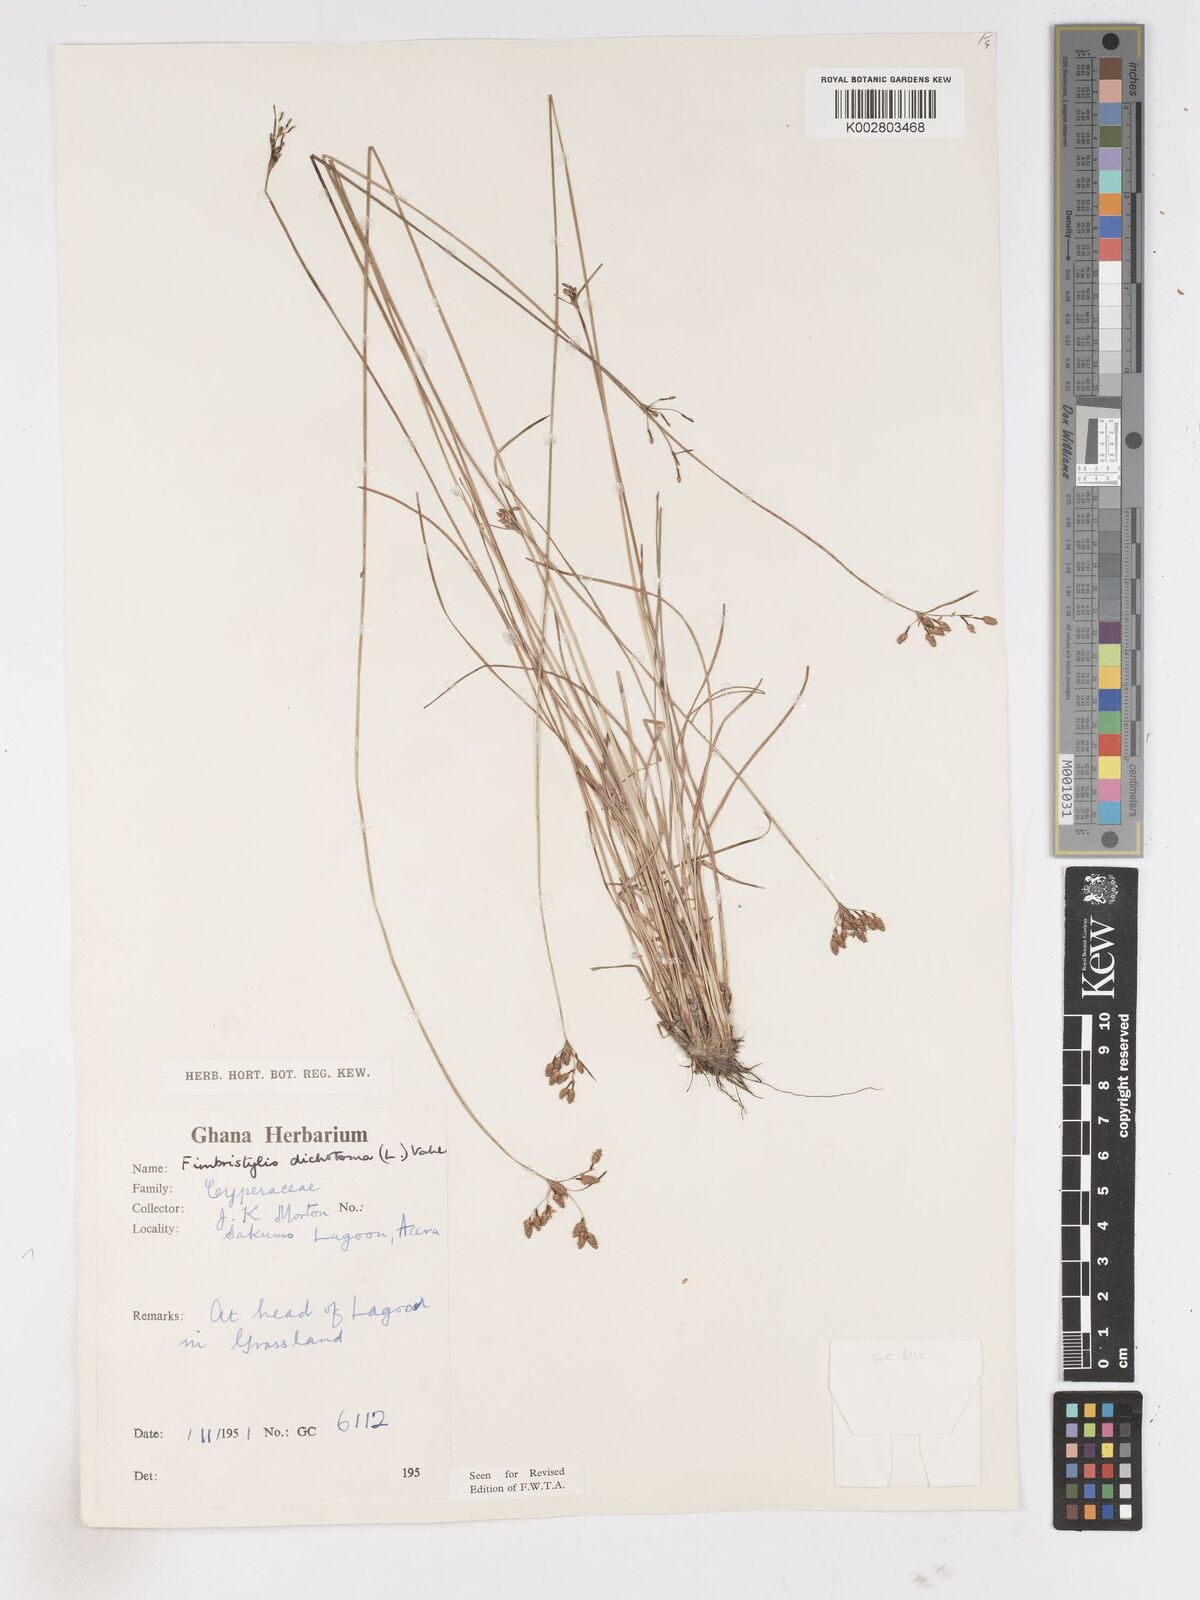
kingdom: Plantae
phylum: Tracheophyta
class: Liliopsida
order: Poales
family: Cyperaceae
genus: Fimbristylis
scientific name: Fimbristylis dichotoma
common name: Forked fimbry
